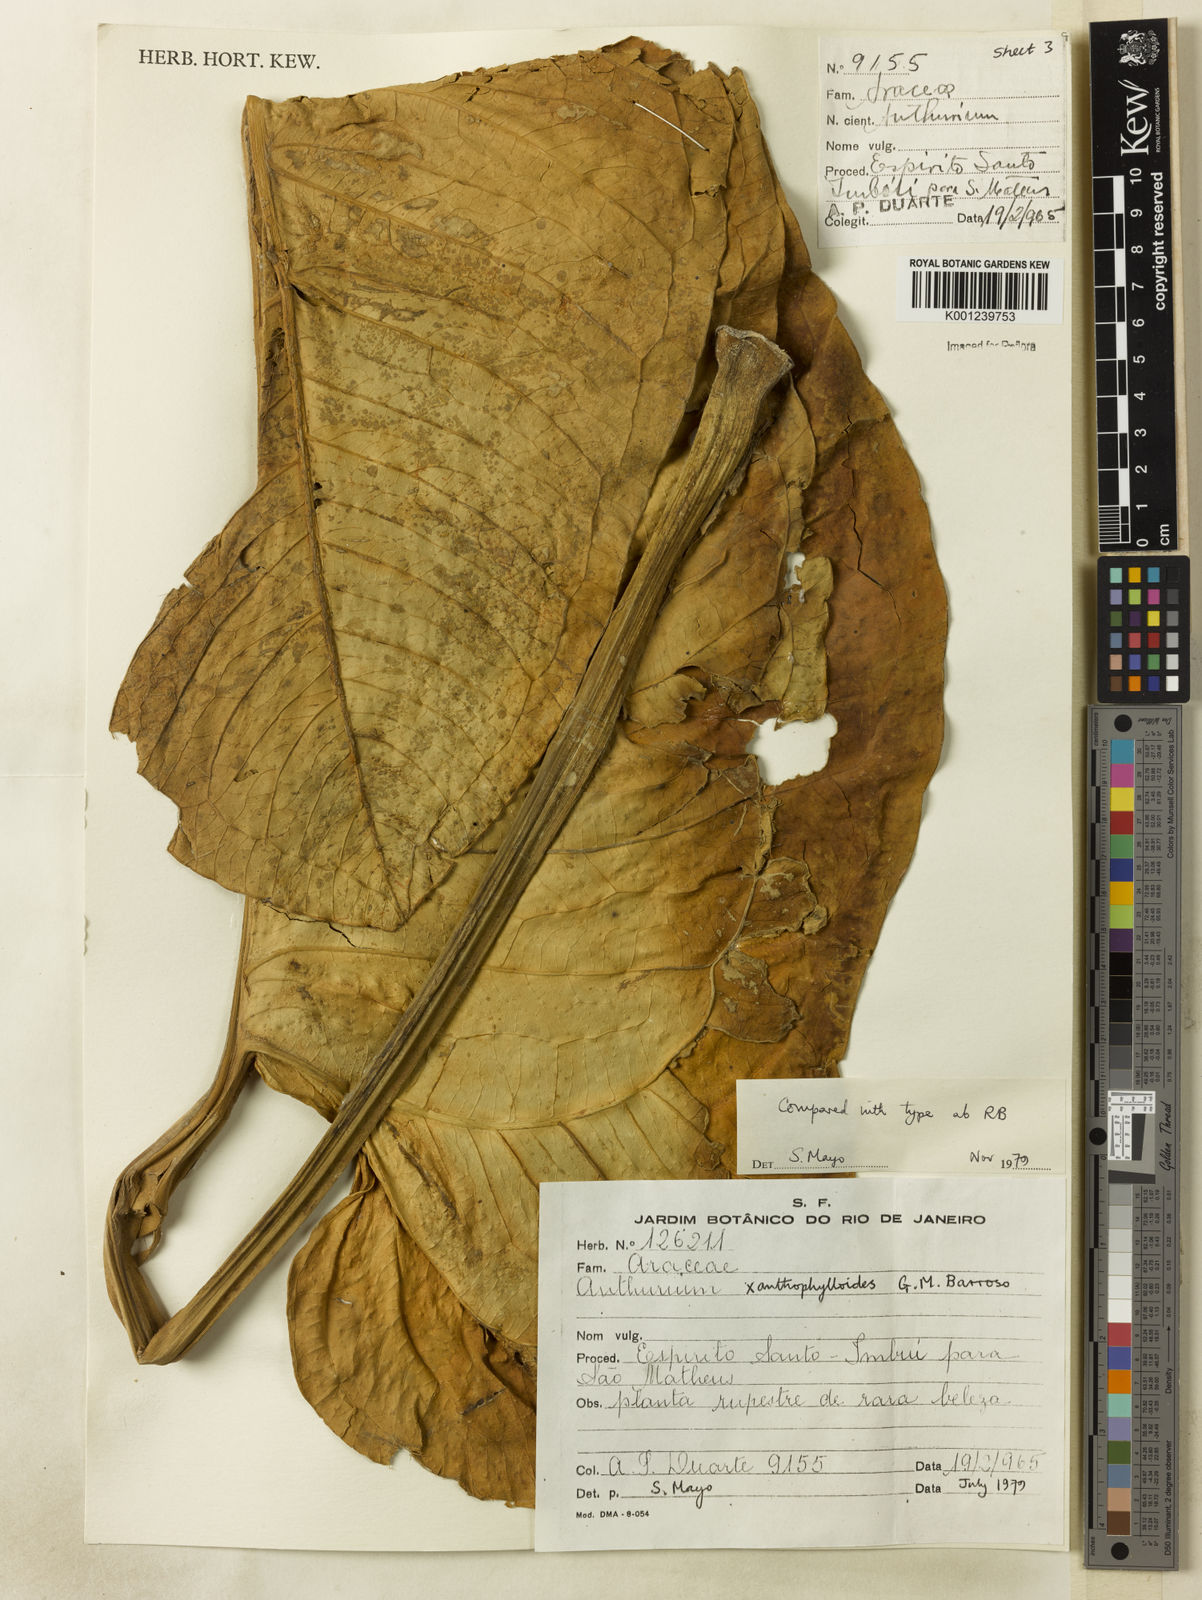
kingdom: Plantae
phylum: Tracheophyta
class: Liliopsida
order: Alismatales
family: Araceae
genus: Anthurium
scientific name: Anthurium xanthophylloides
